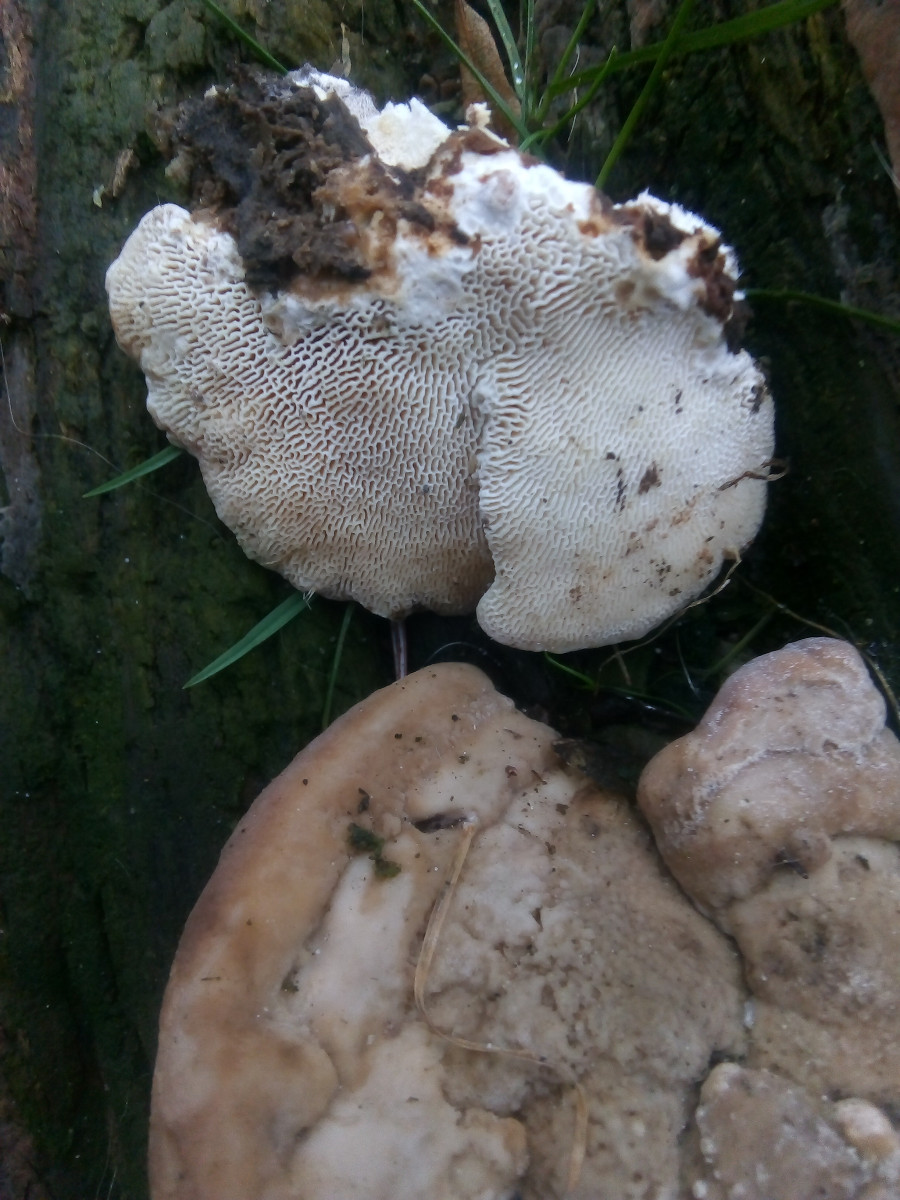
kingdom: Fungi
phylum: Basidiomycota
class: Agaricomycetes
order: Polyporales
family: Polyporaceae
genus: Trametes
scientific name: Trametes gibbosa
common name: puklet læderporesvamp
